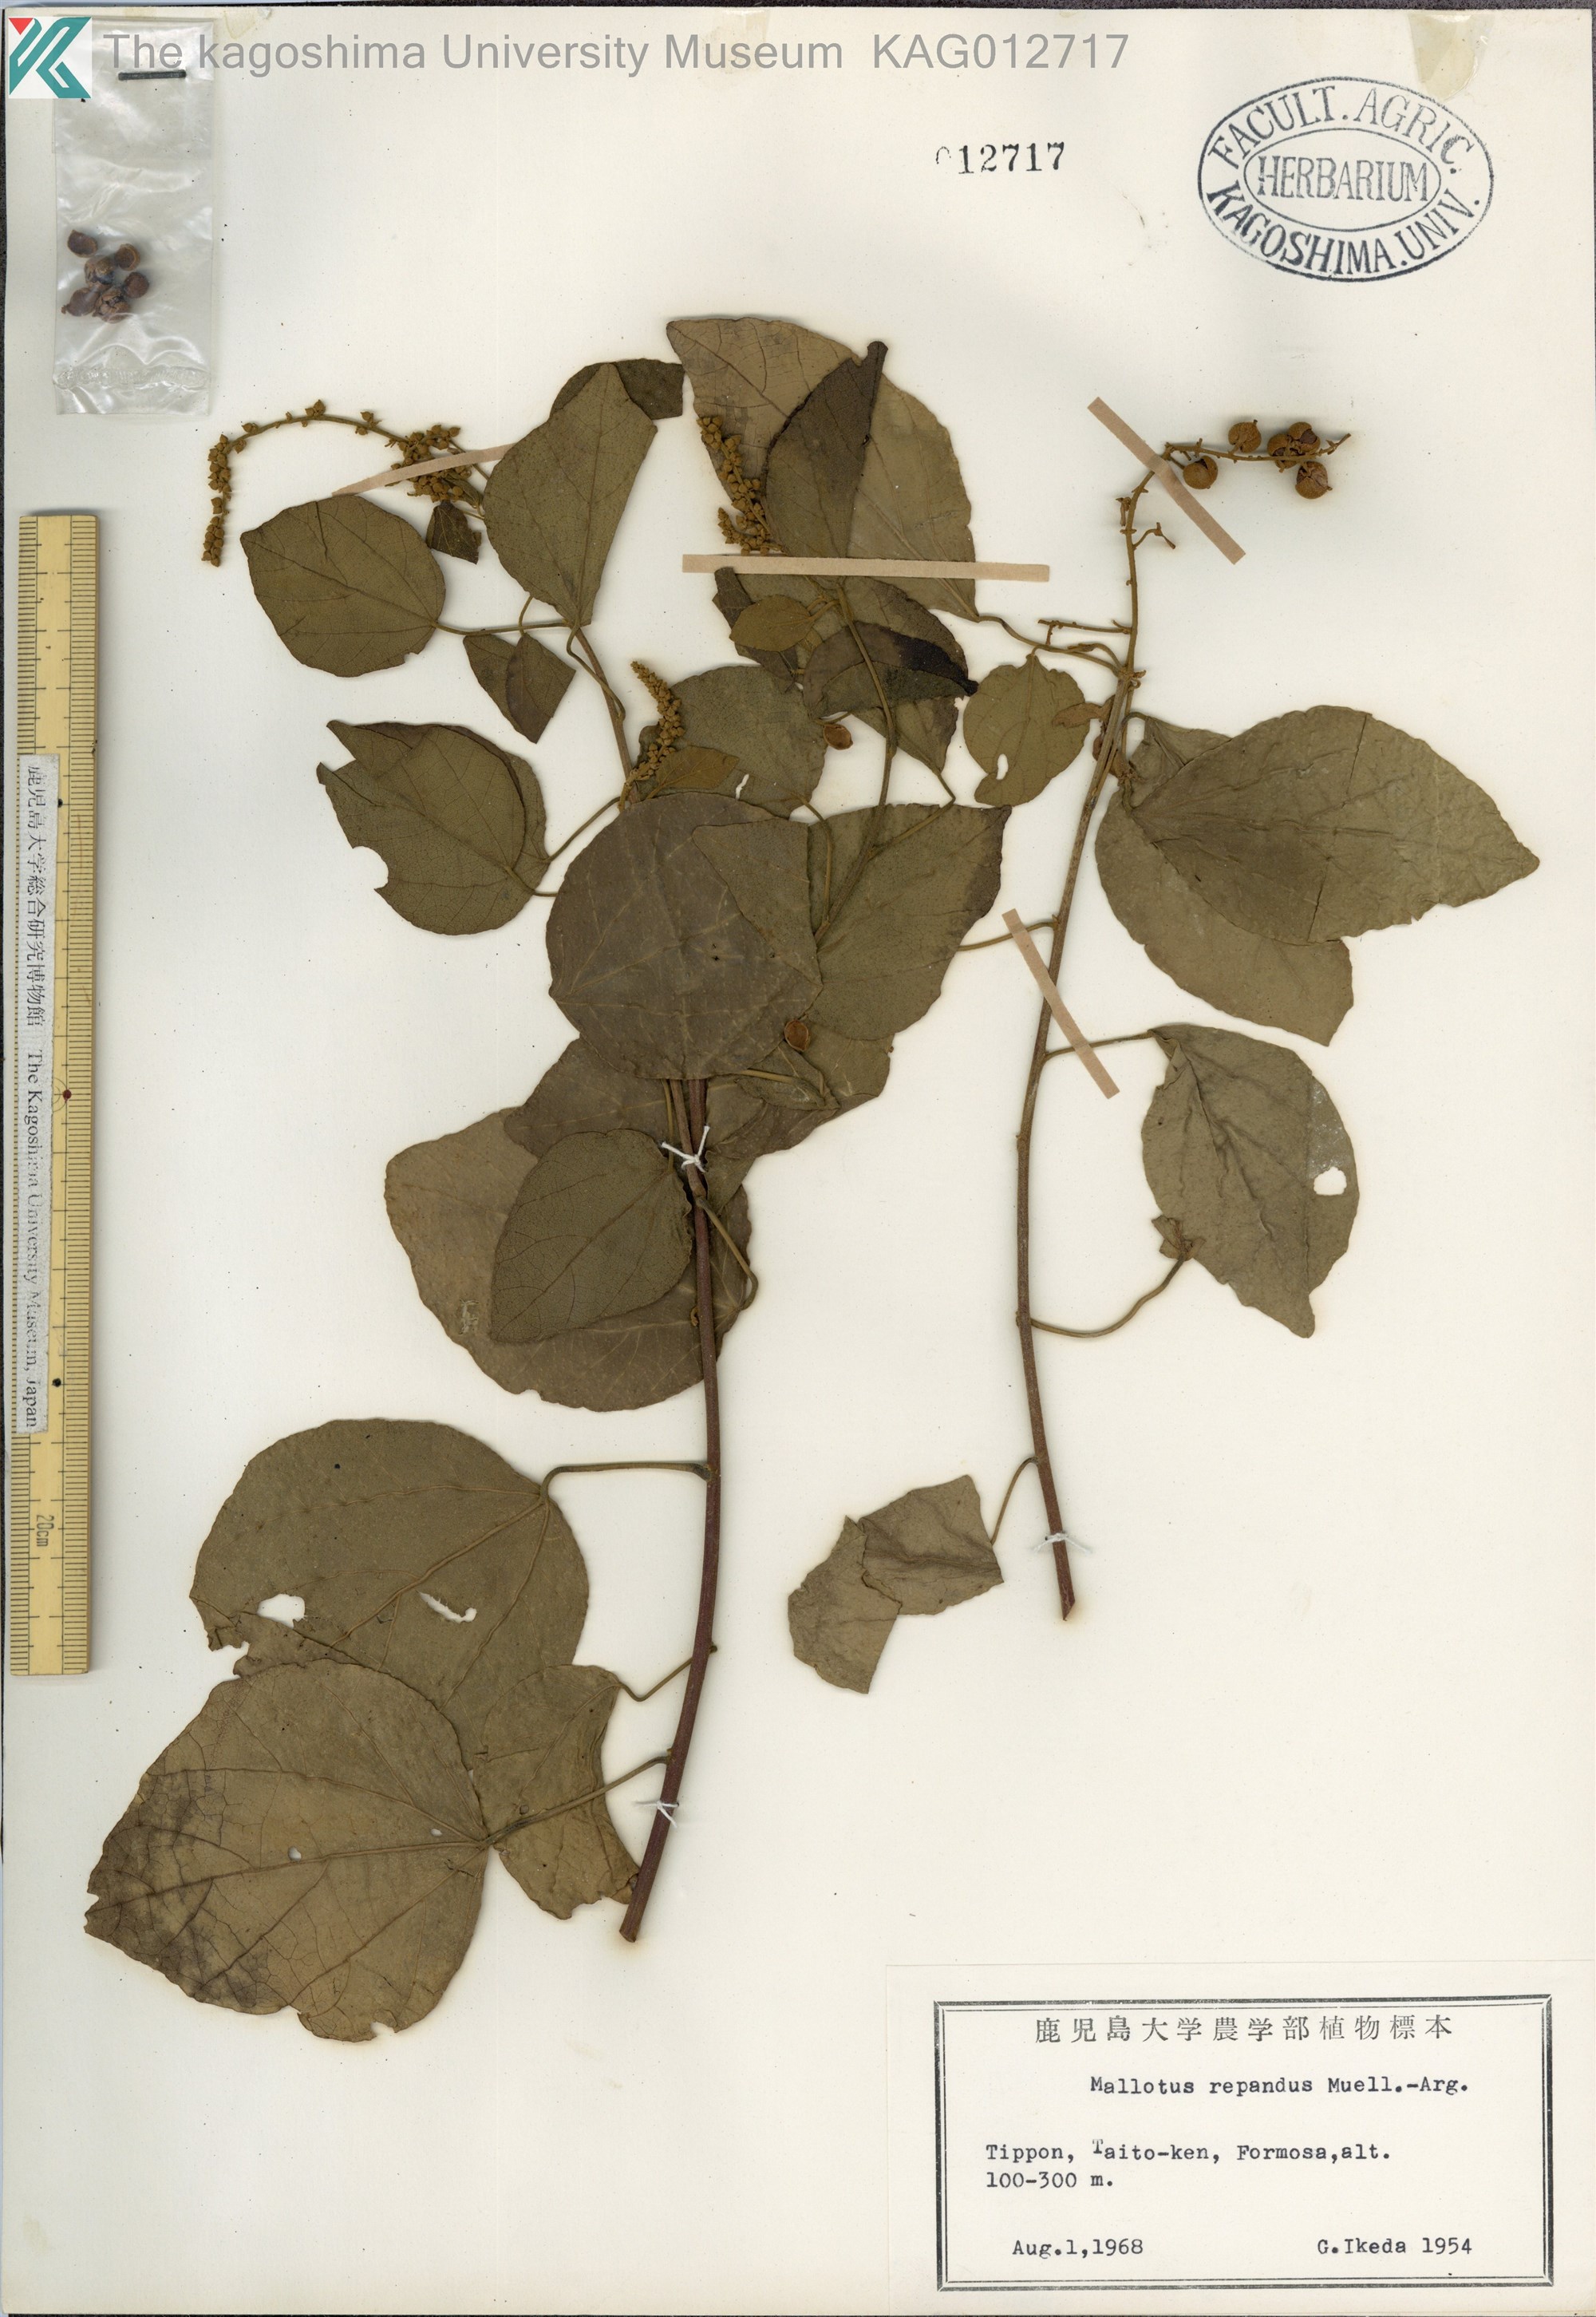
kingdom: Plantae
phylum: Tracheophyta
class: Magnoliopsida
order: Malpighiales
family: Euphorbiaceae
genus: Mallotus
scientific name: Mallotus repandus
